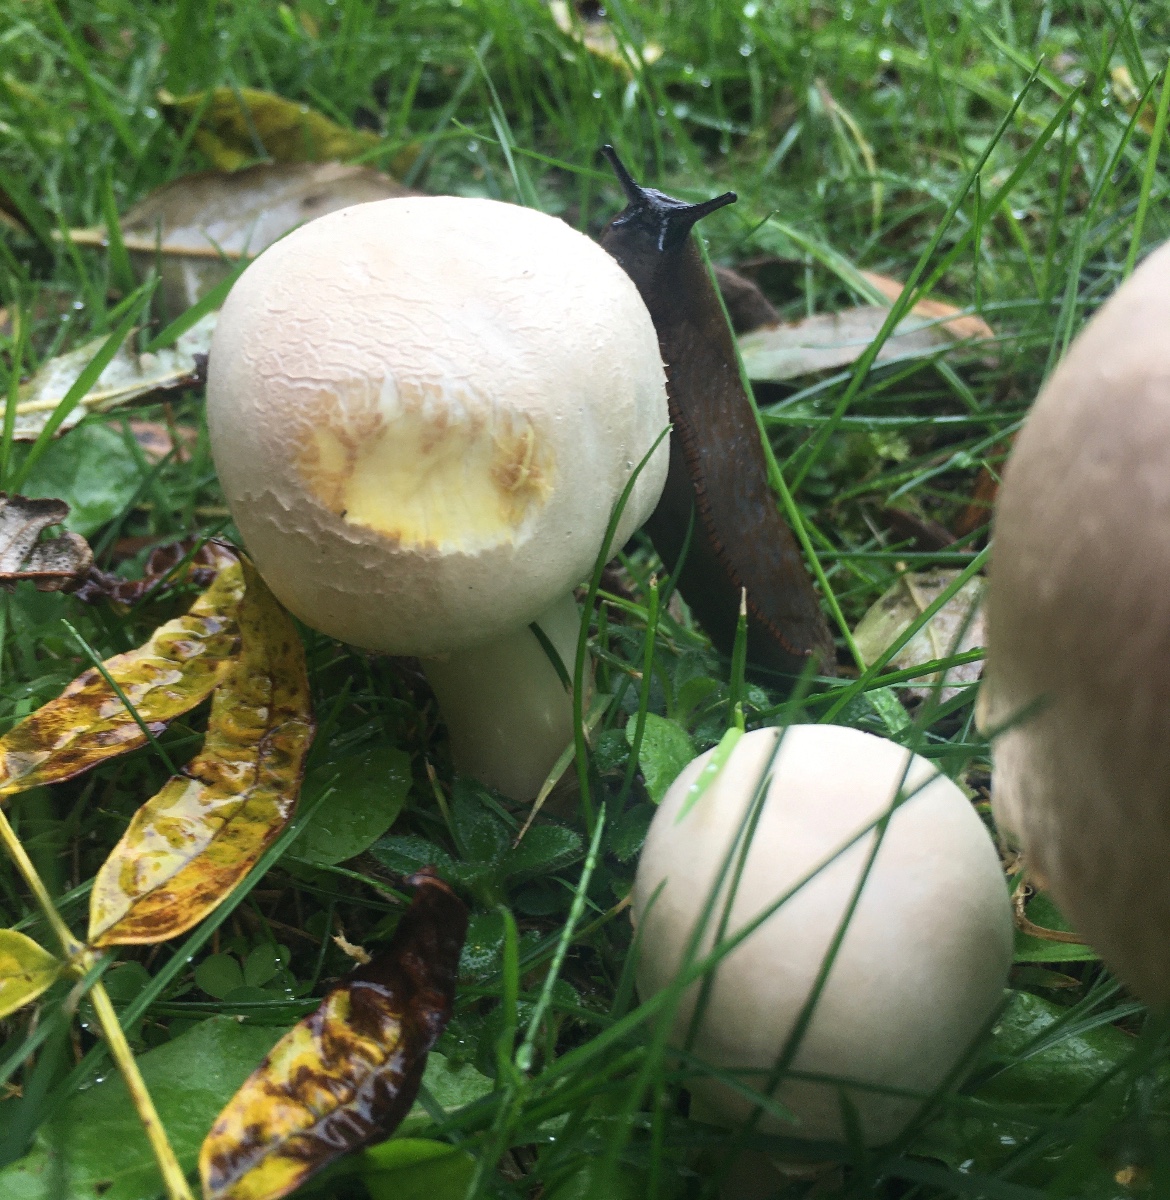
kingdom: Fungi
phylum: Basidiomycota
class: Agaricomycetes
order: Agaricales
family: Agaricaceae
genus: Agaricus
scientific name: Agaricus xanthodermus
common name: karbol-champignon
